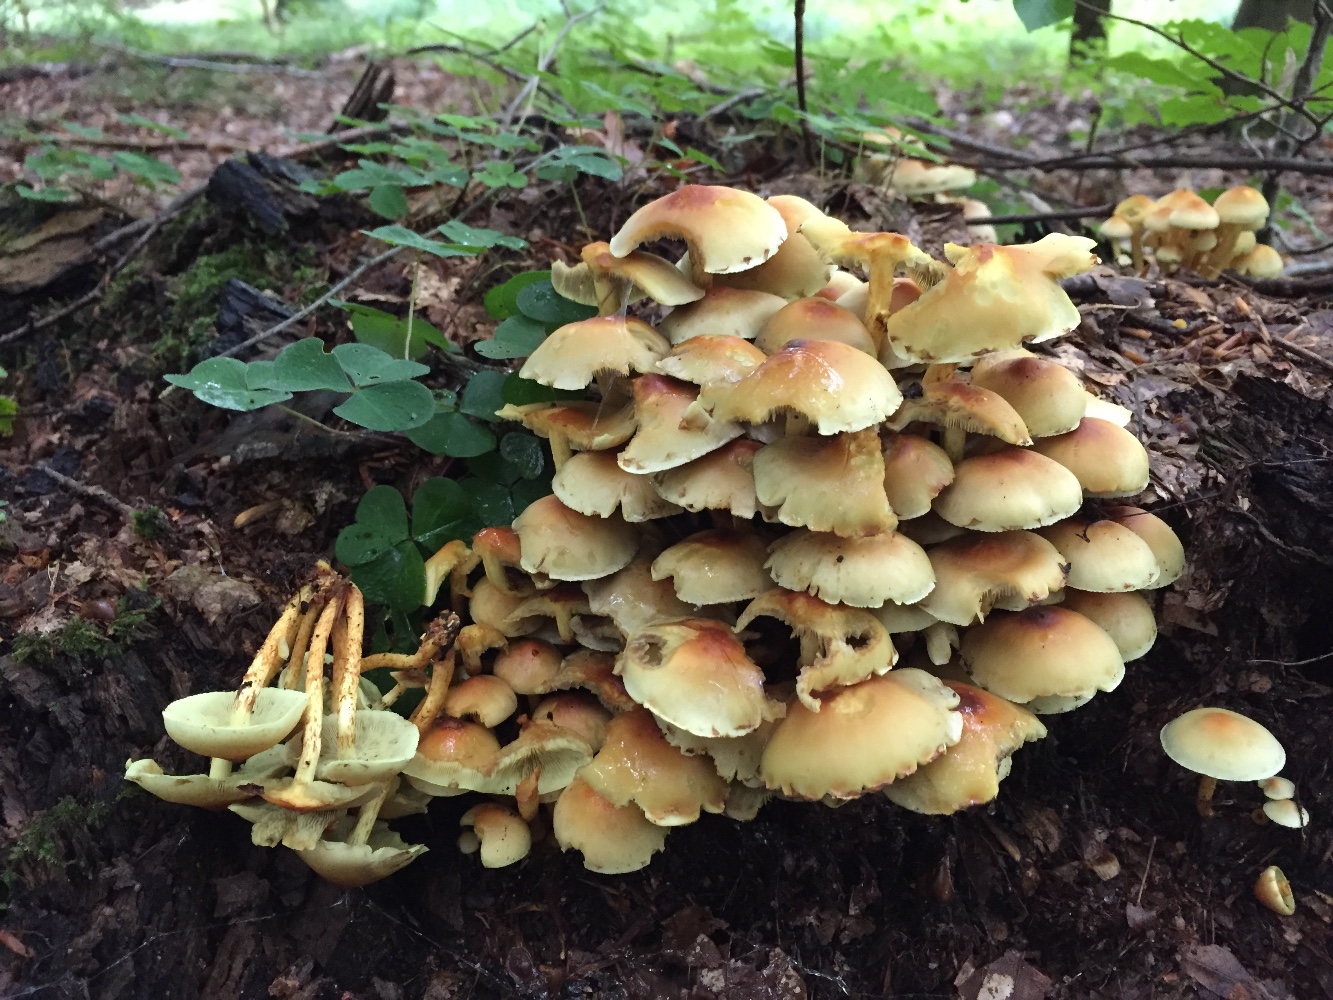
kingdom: Fungi
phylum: Basidiomycota
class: Agaricomycetes
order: Agaricales
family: Strophariaceae
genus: Hypholoma
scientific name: Hypholoma fasciculare
